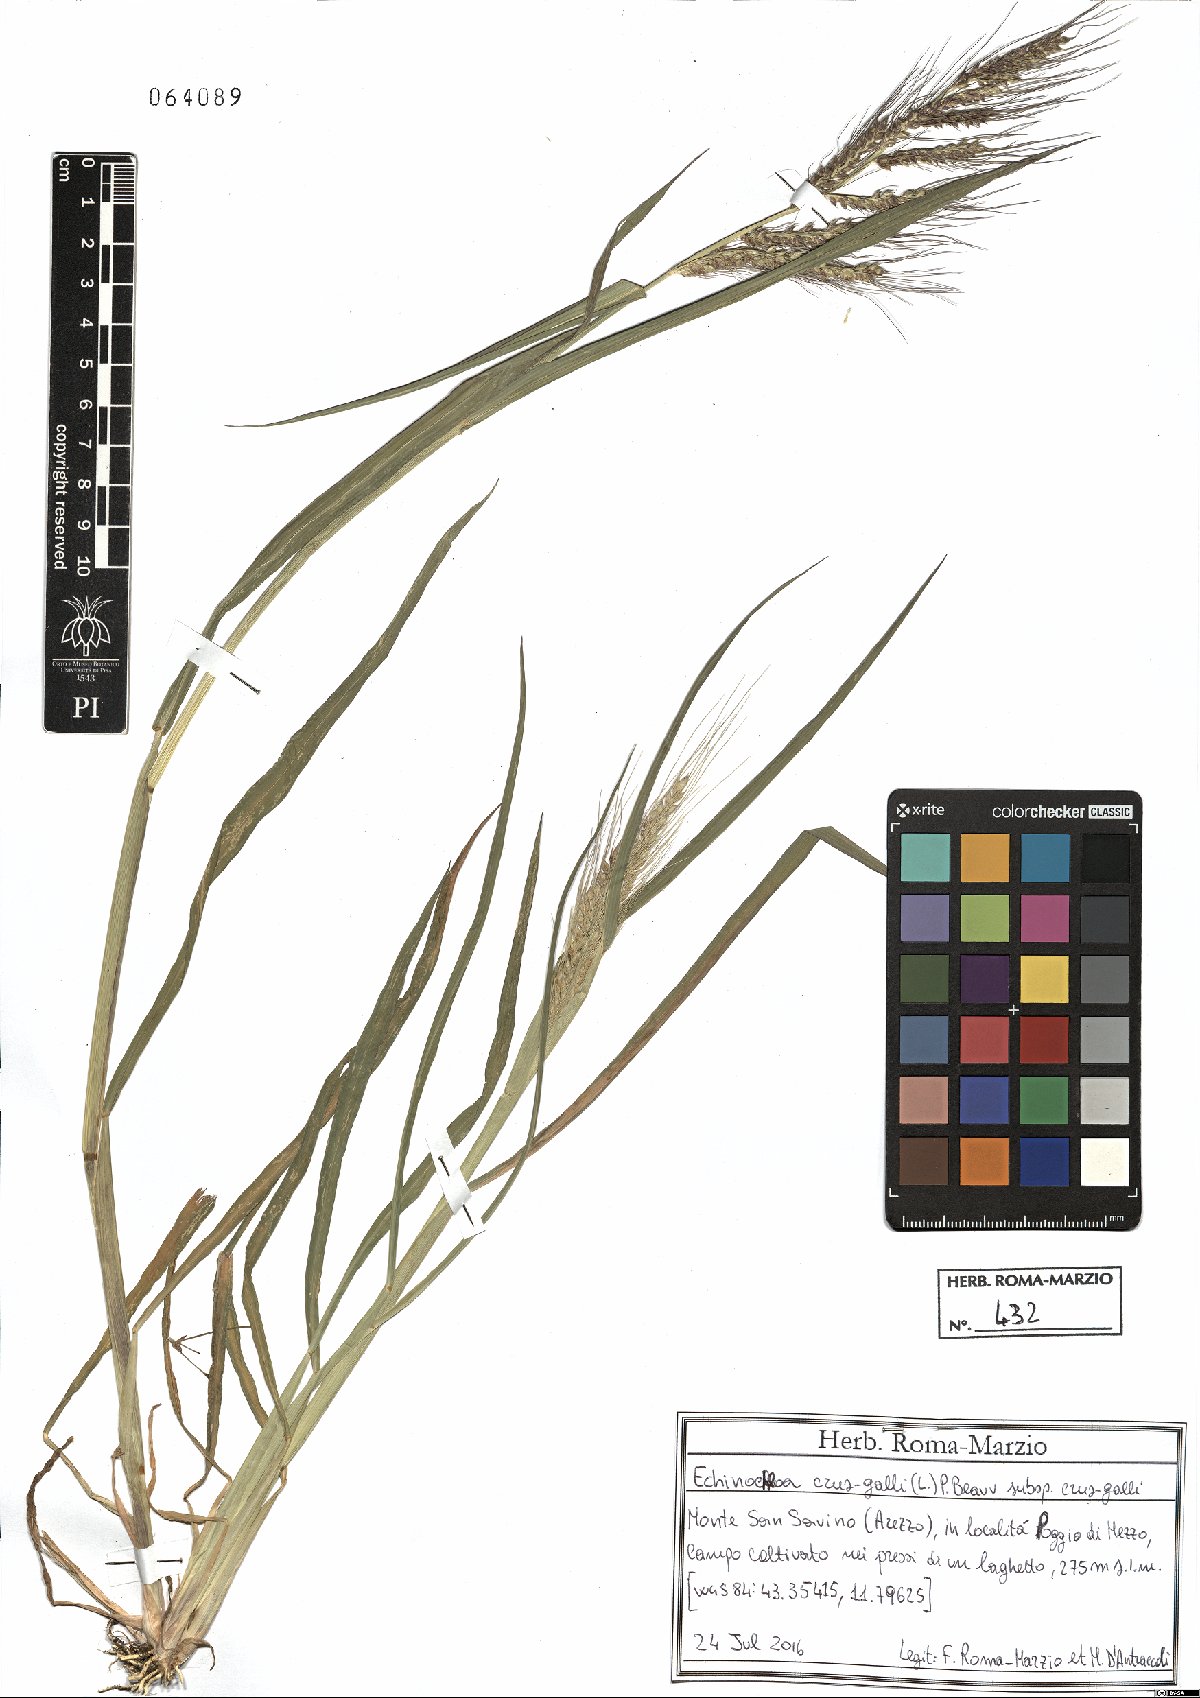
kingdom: Plantae
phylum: Tracheophyta
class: Liliopsida
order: Poales
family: Poaceae
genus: Echinochloa
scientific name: Echinochloa crus-galli
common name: Cockspur
